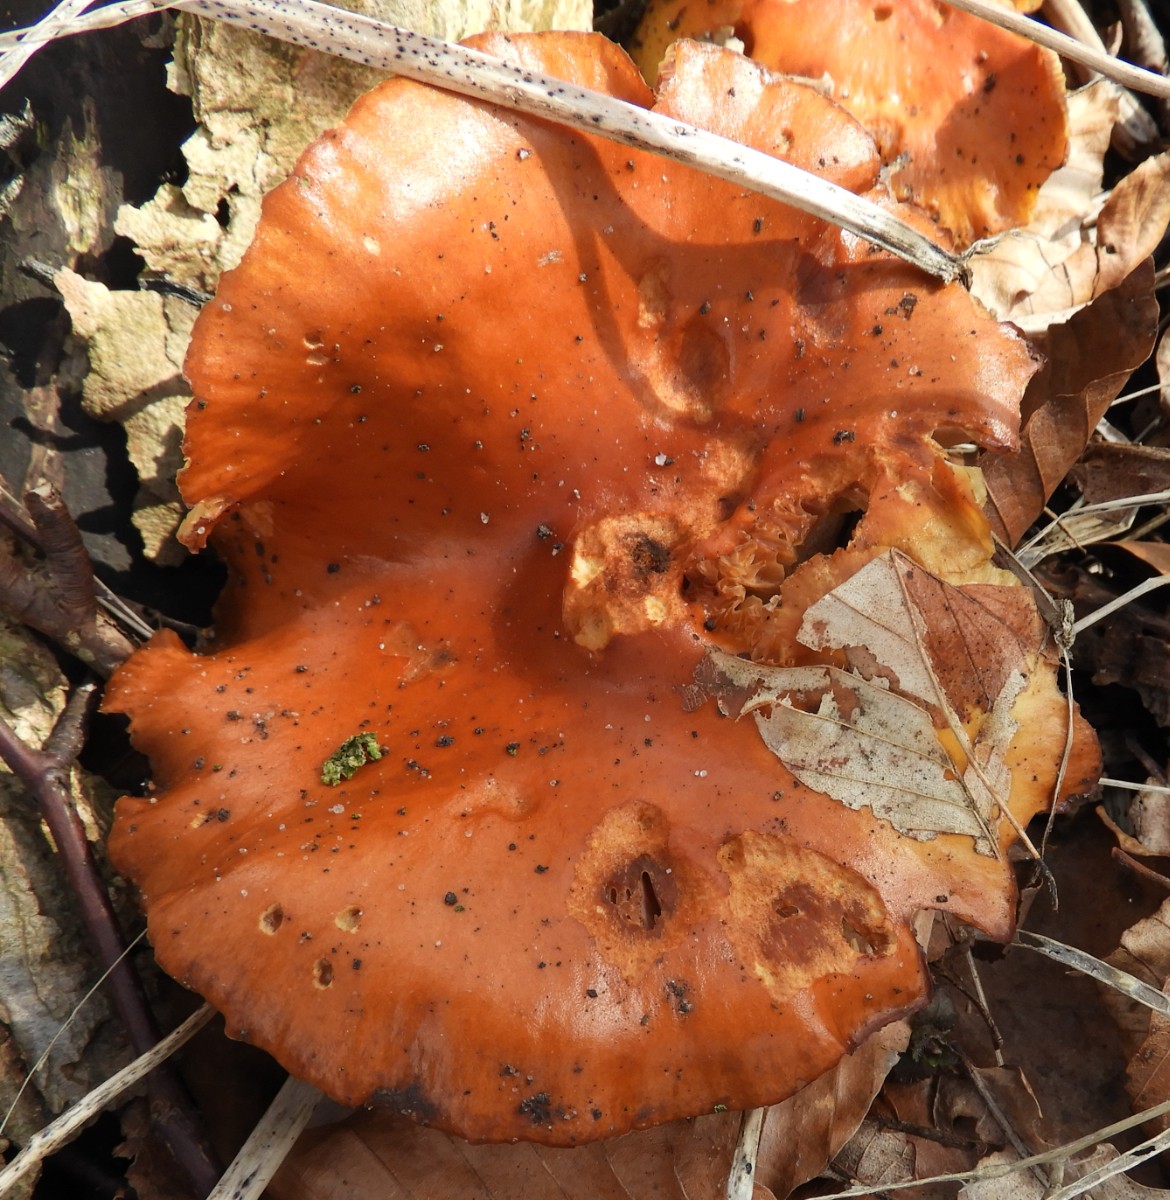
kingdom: Fungi
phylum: Basidiomycota
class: Agaricomycetes
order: Agaricales
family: Physalacriaceae
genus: Flammulina
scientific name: Flammulina velutipes
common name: gul fløjlsfod
